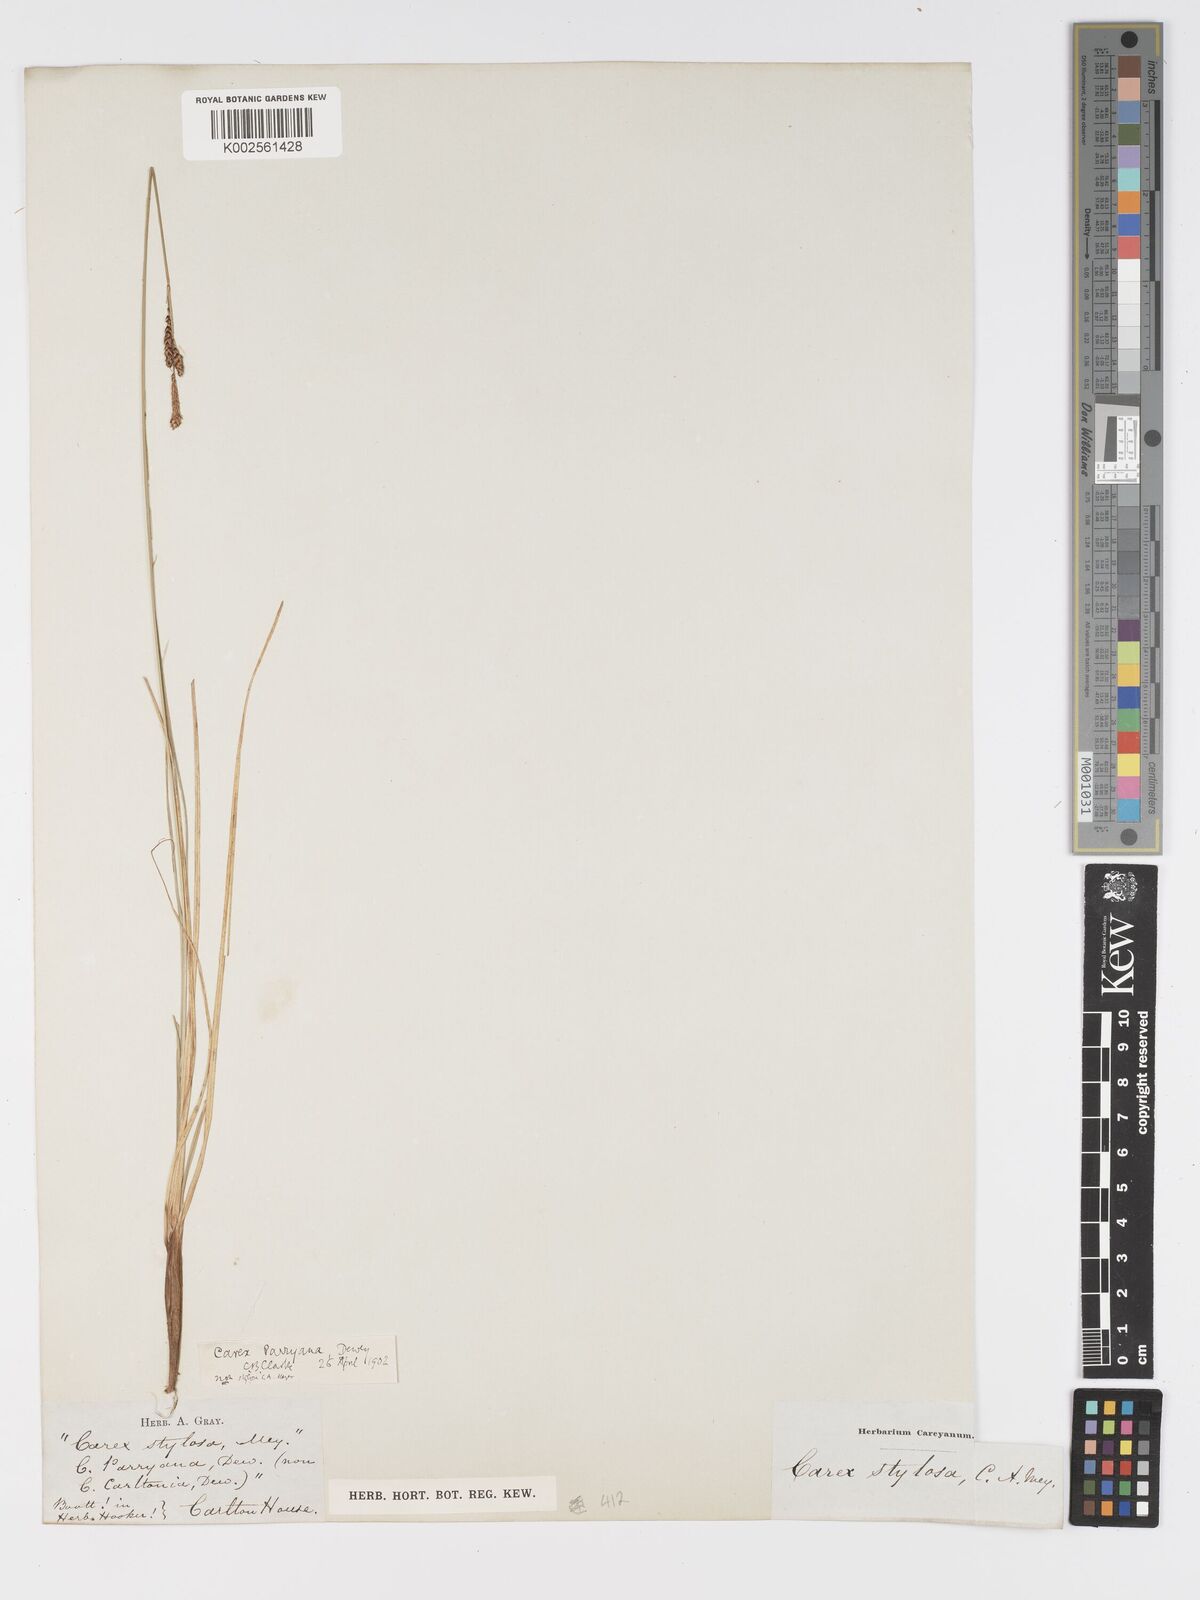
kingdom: Plantae
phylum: Tracheophyta
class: Liliopsida
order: Poales
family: Cyperaceae
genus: Carex
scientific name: Carex parryana
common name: Parry's sedge
